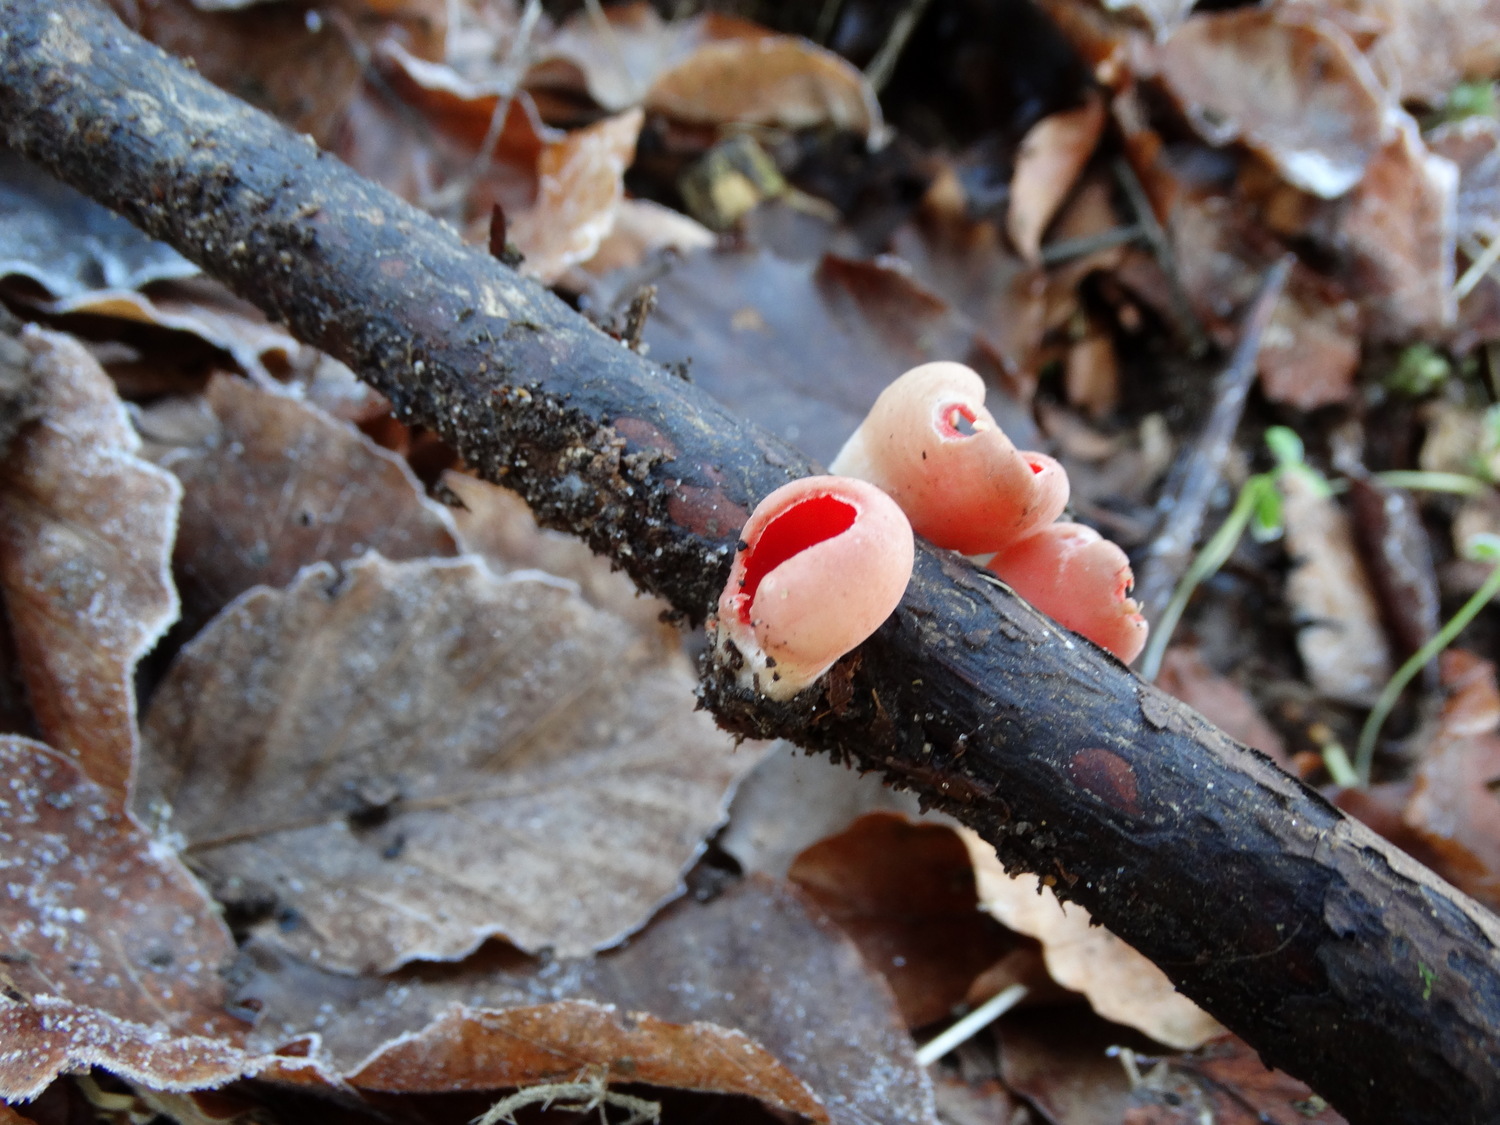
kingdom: Fungi
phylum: Ascomycota
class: Pezizomycetes
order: Pezizales
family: Sarcoscyphaceae
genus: Sarcoscypha
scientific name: Sarcoscypha austriaca
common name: krølhåret pragtbæger
